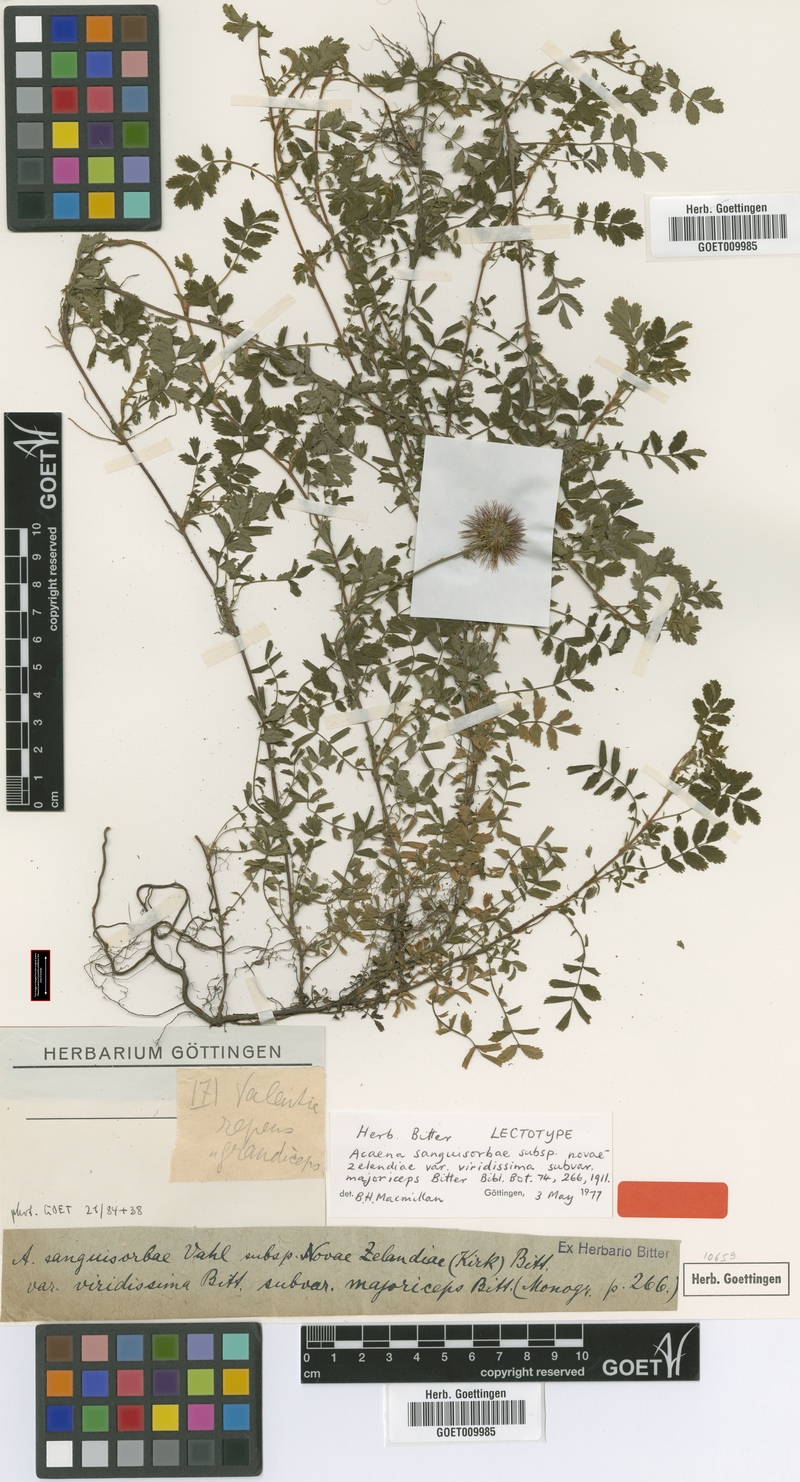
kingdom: Plantae
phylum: Tracheophyta
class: Magnoliopsida
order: Rosales
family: Rosaceae
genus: Acaena
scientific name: Acaena anserinifolia
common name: Bronze pirri-pirri-bur
